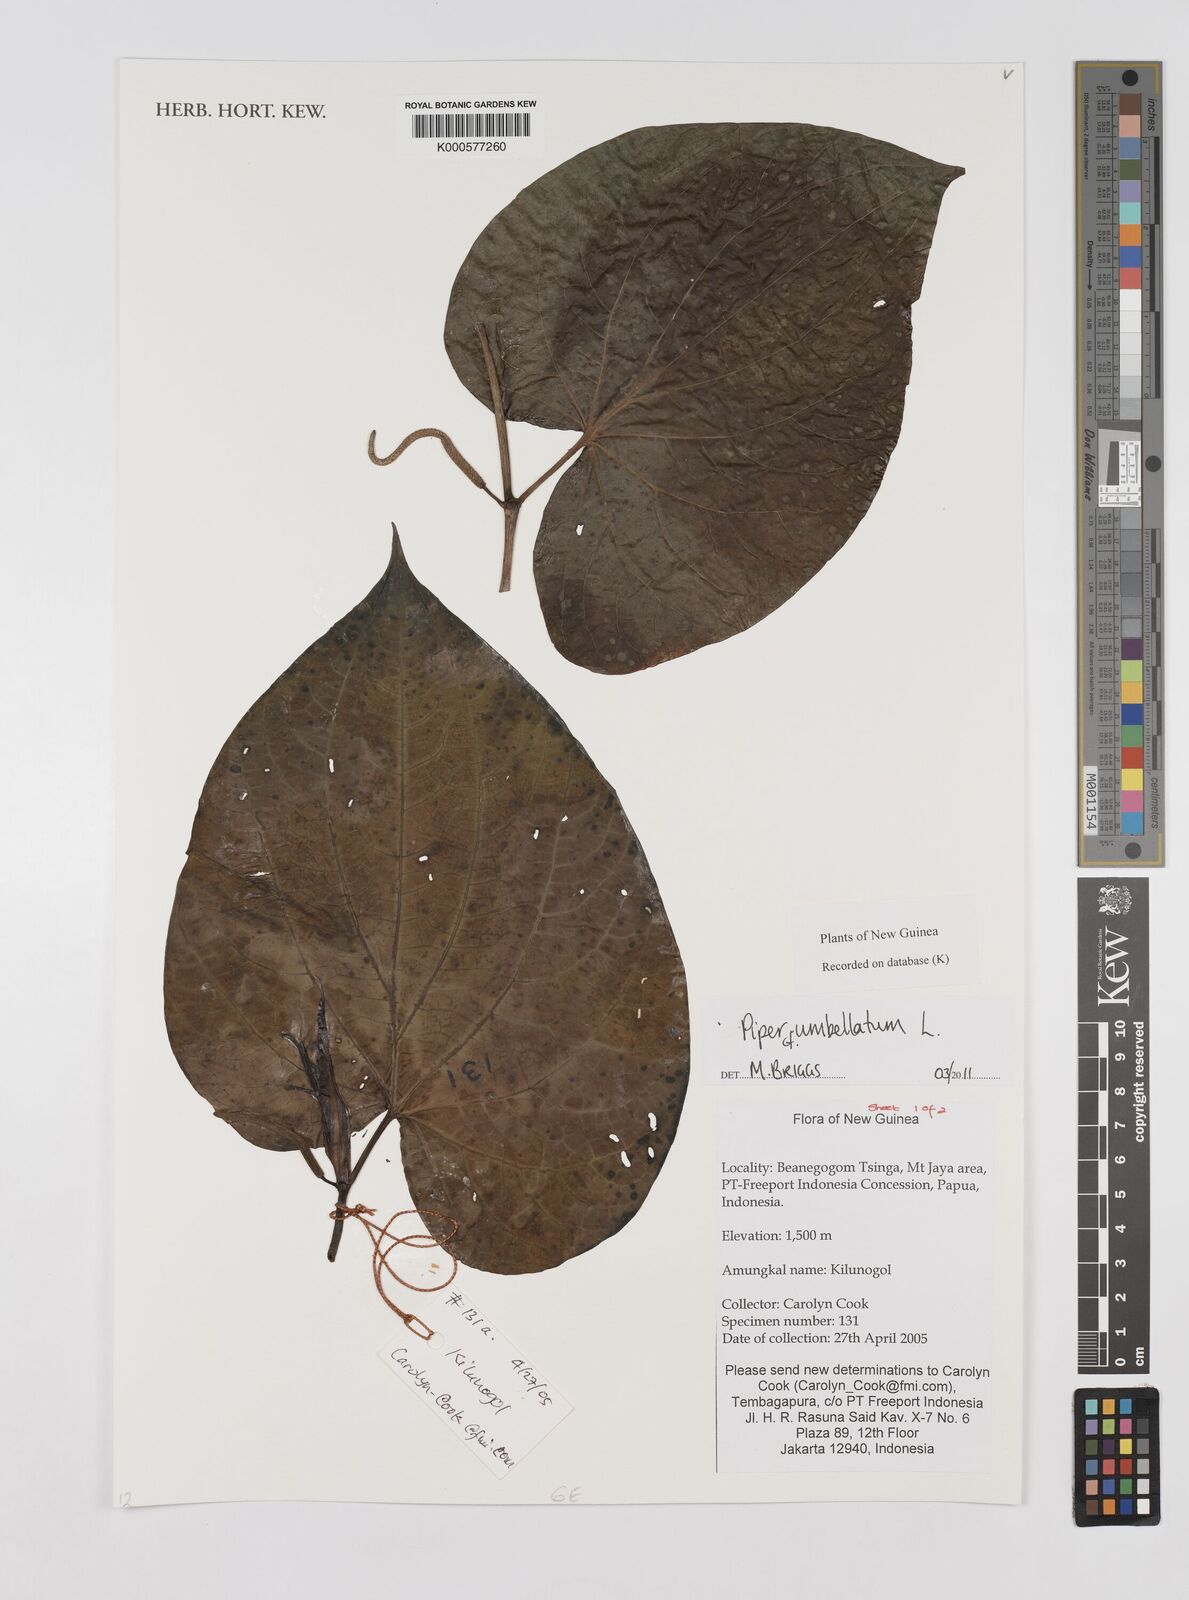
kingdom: Plantae
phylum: Tracheophyta
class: Magnoliopsida
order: Piperales
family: Piperaceae
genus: Piper
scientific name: Piper umbellatum
